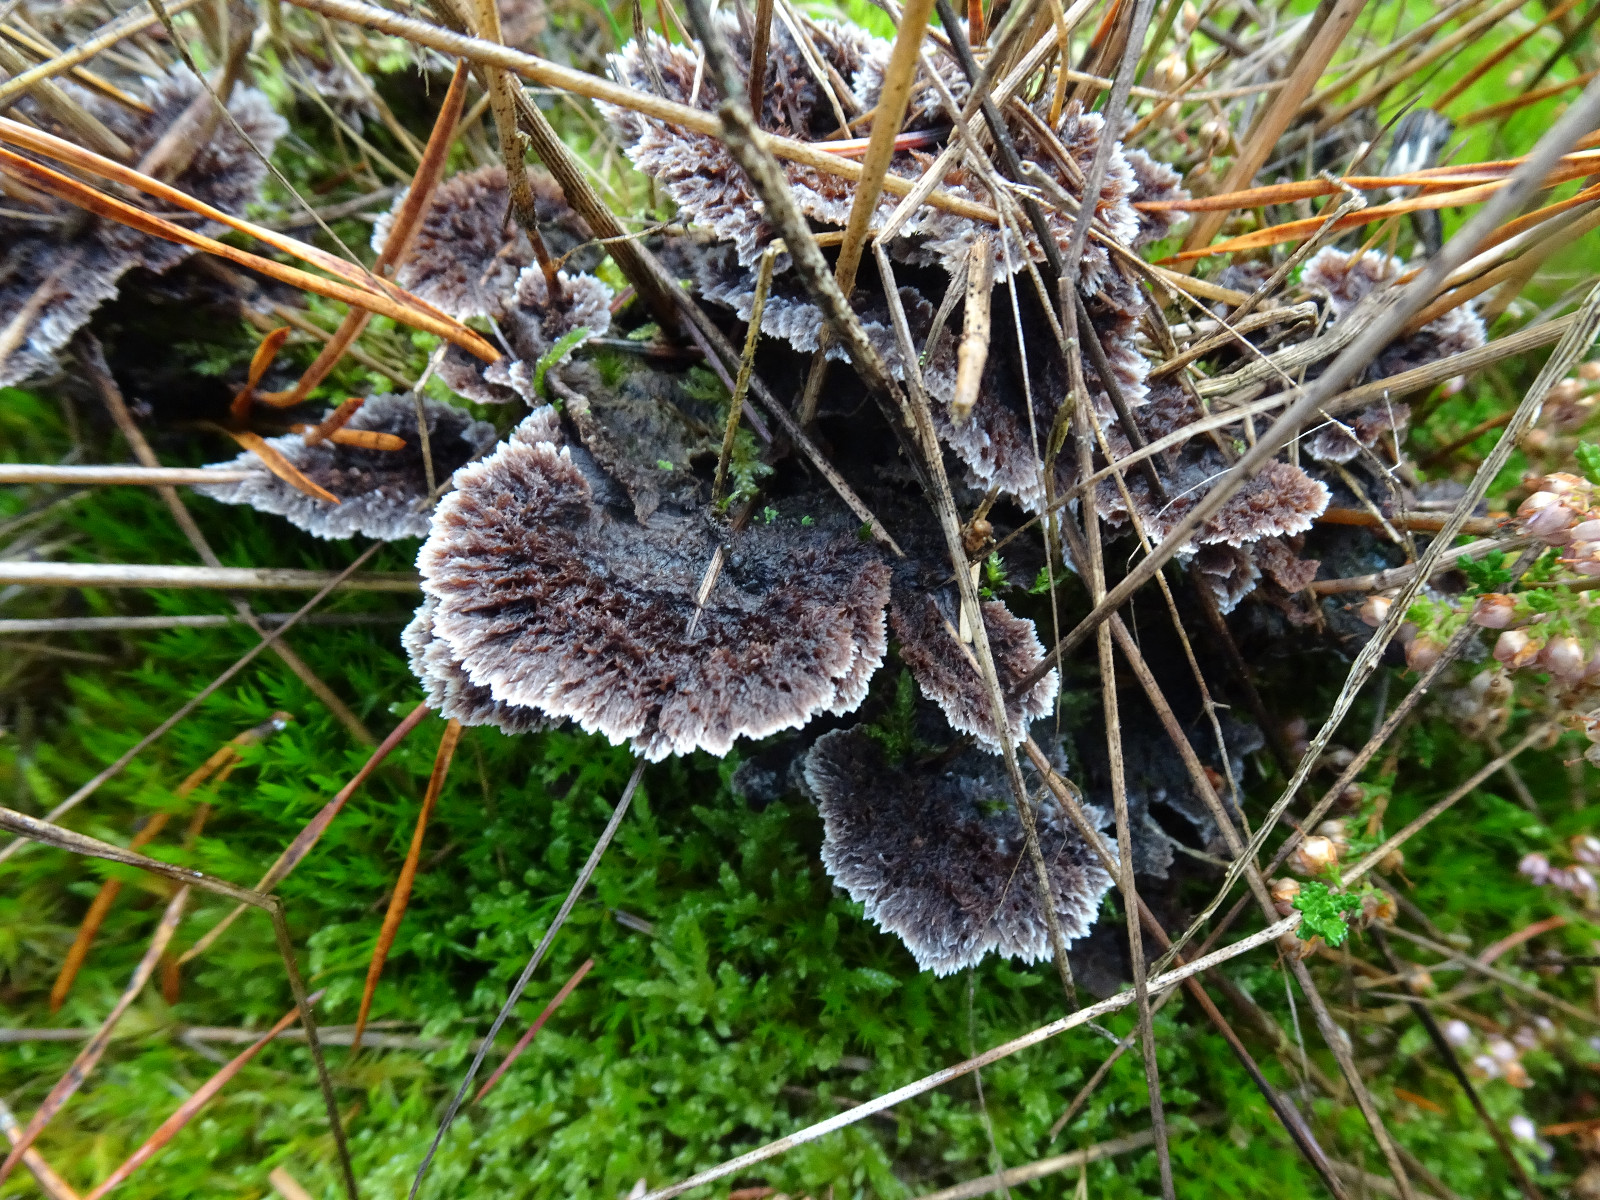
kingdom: Fungi
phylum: Basidiomycota
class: Agaricomycetes
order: Thelephorales
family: Thelephoraceae
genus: Thelephora
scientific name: Thelephora terrestris
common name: fliget frynsesvamp
